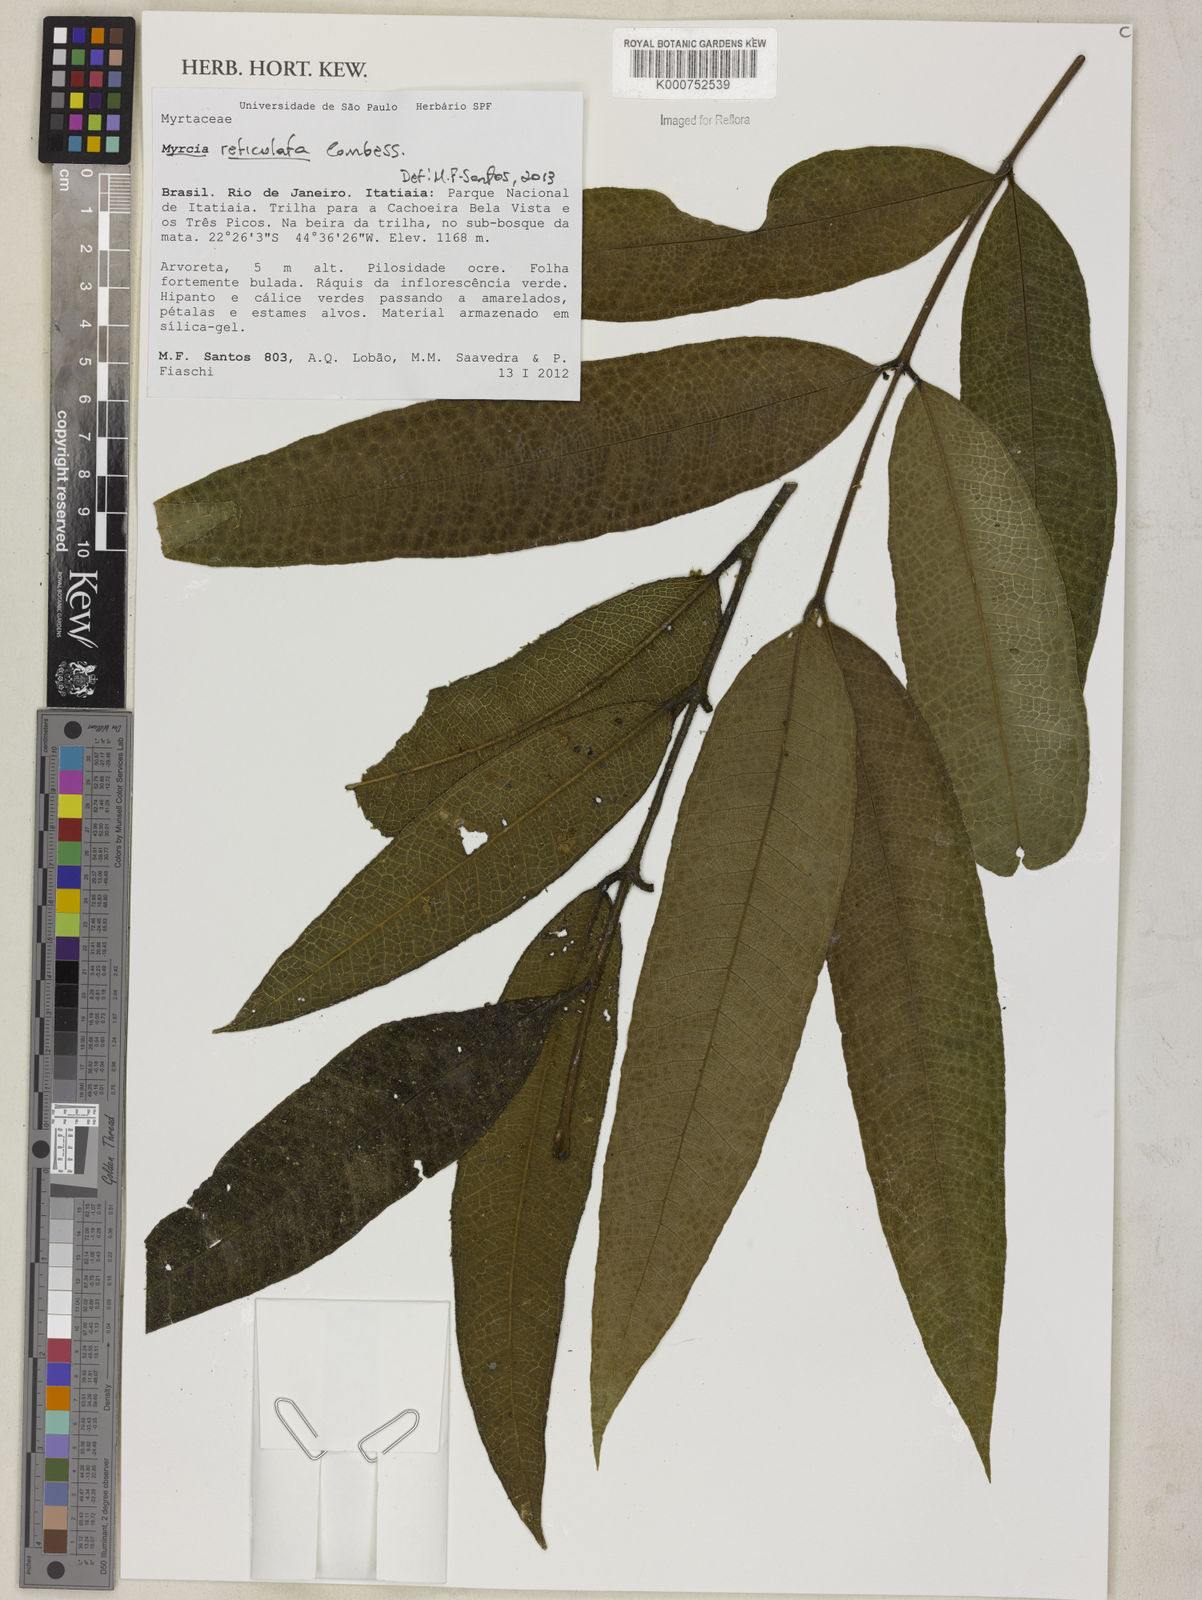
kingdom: Plantae
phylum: Tracheophyta
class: Magnoliopsida
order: Myrtales
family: Myrtaceae
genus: Myrcia
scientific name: Myrcia reticulata
